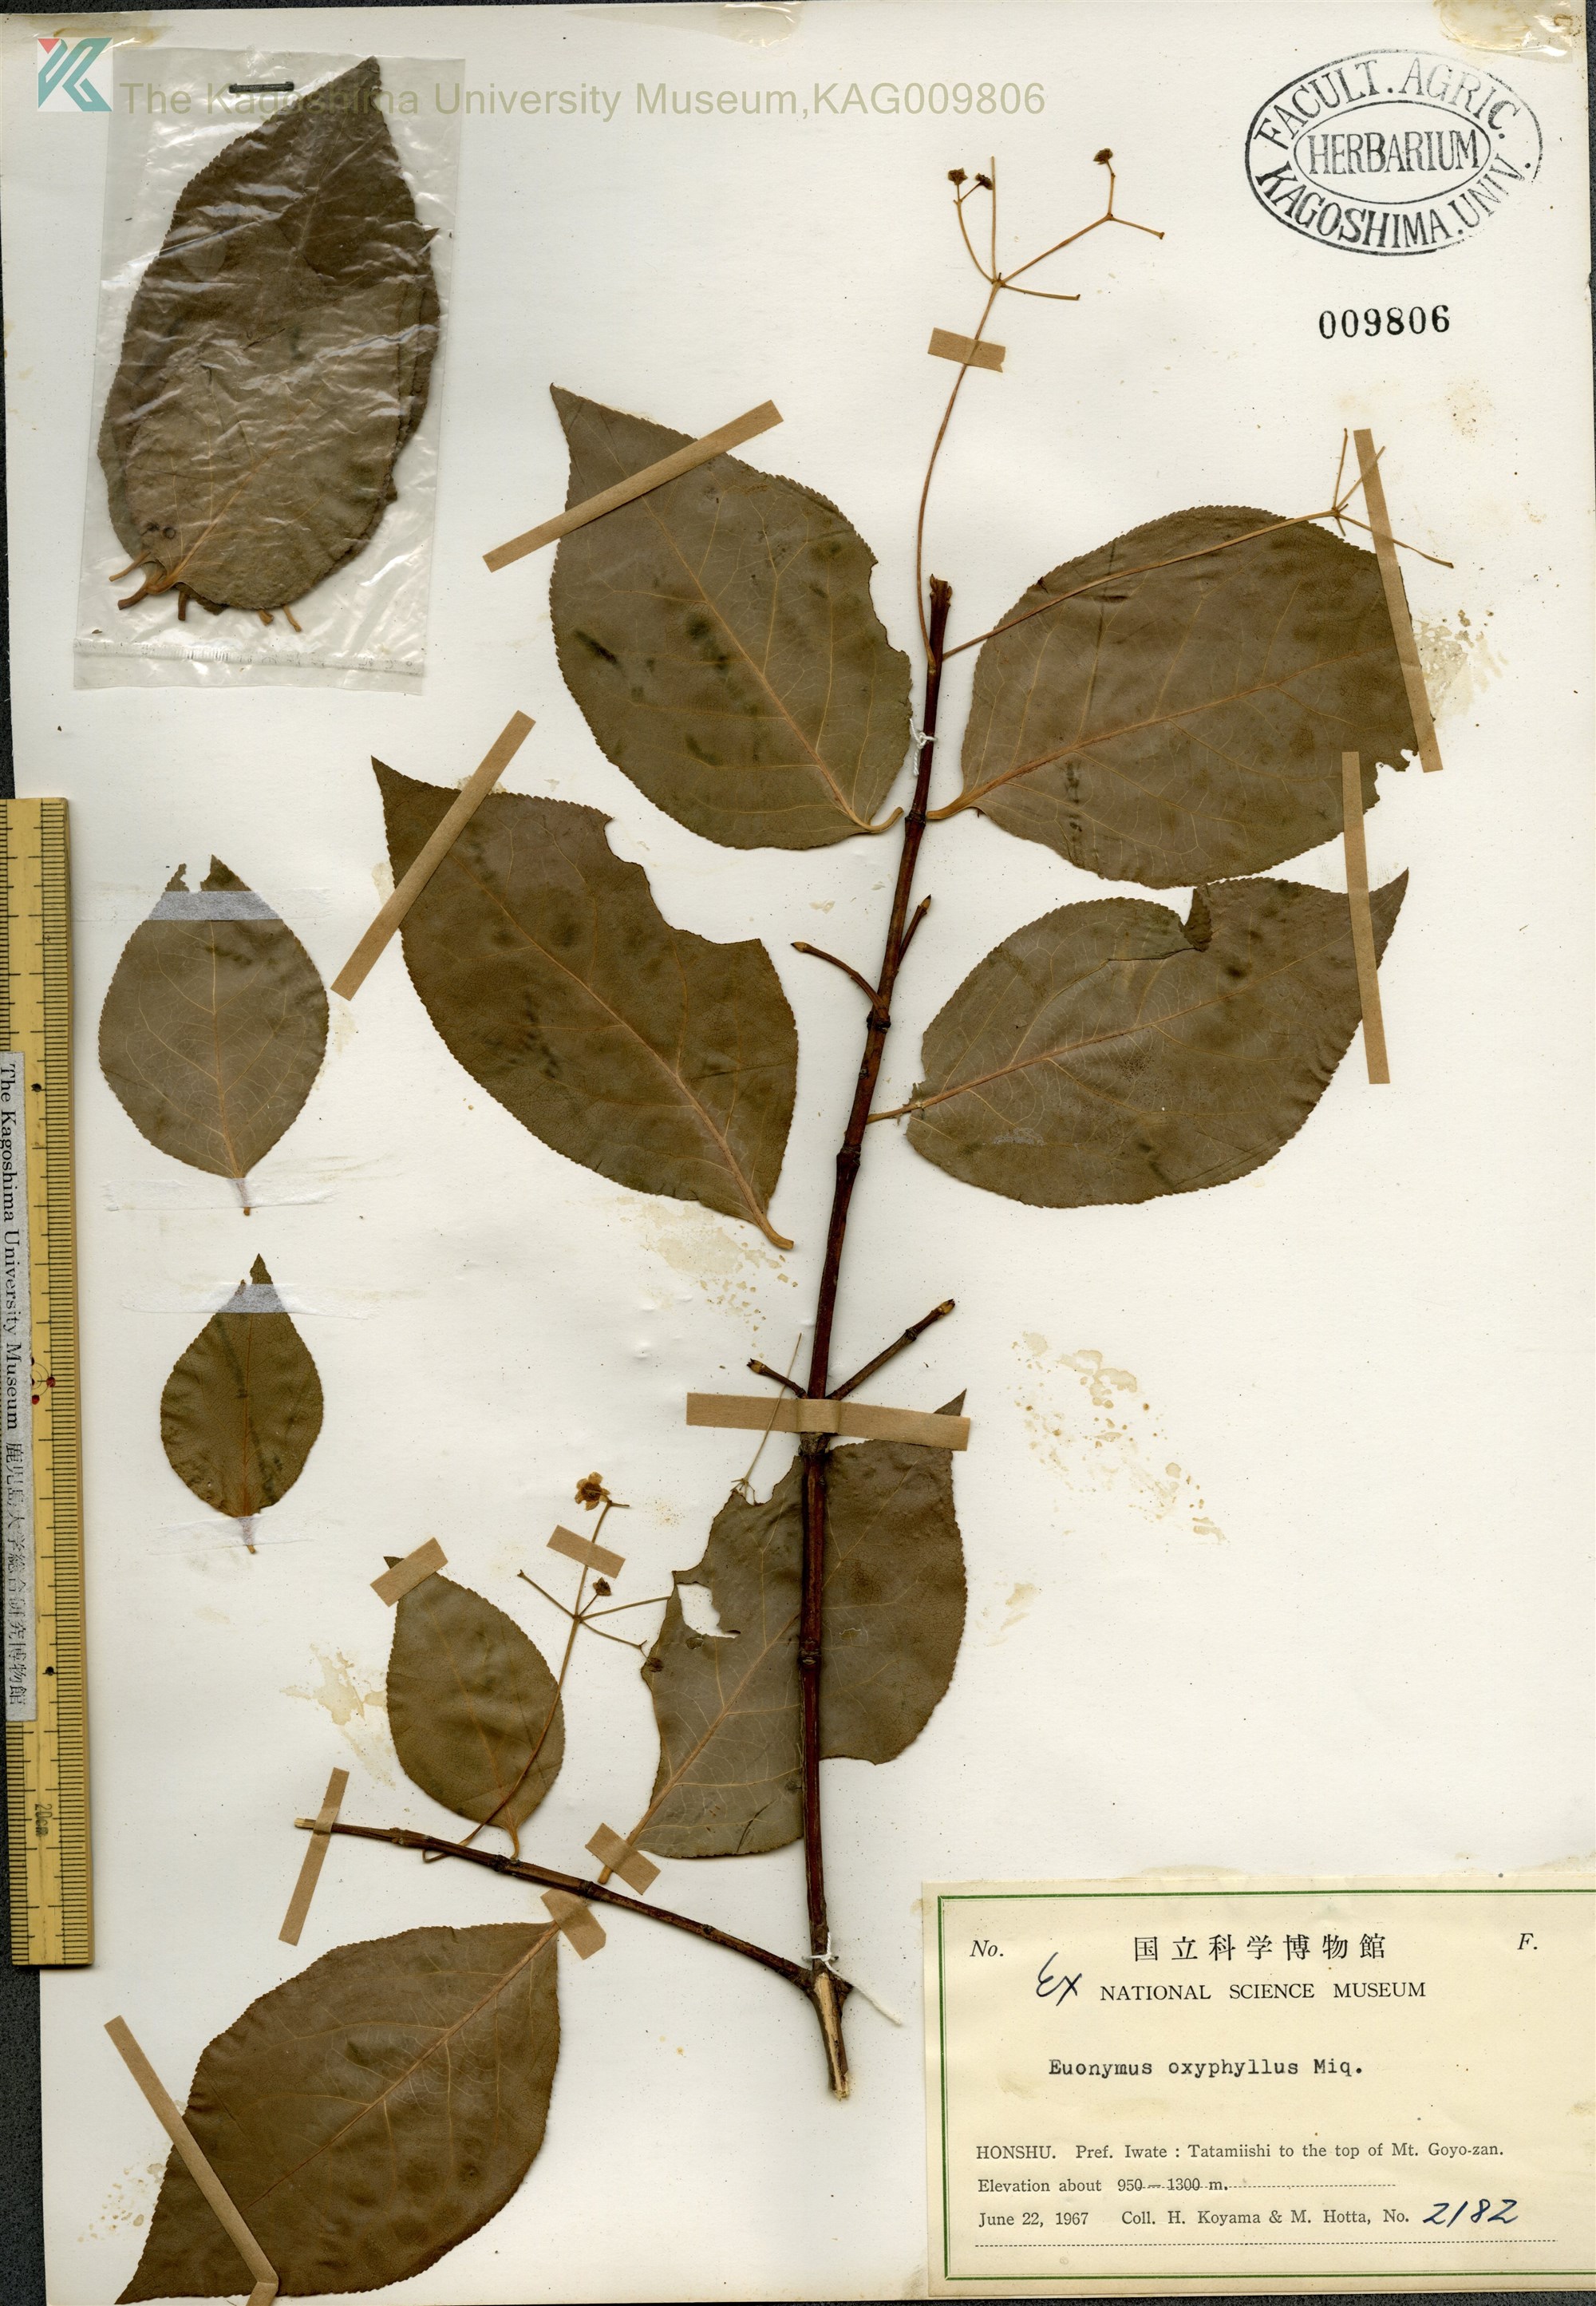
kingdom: Plantae
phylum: Tracheophyta
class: Magnoliopsida
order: Celastrales
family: Celastraceae
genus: Euonymus
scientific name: Euonymus oxyphyllus
